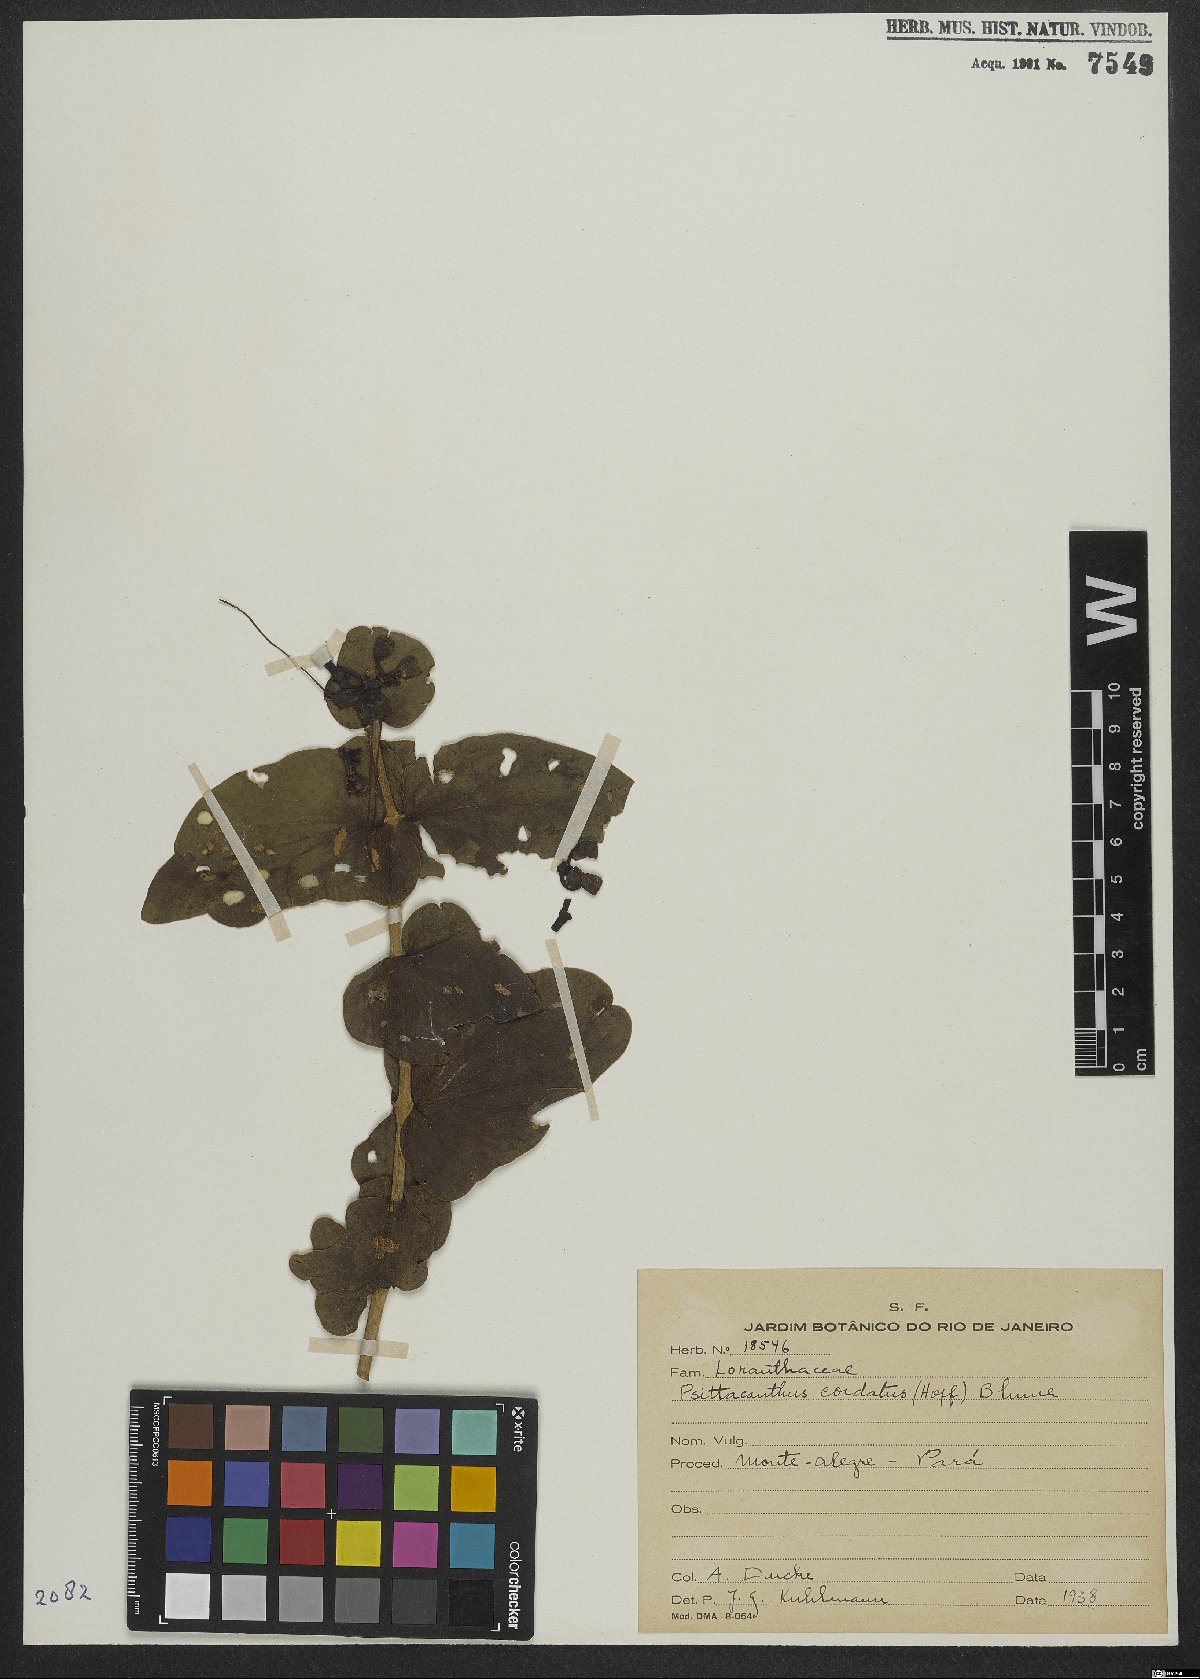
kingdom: Plantae
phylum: Tracheophyta
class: Magnoliopsida
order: Santalales
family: Loranthaceae
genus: Psittacanthus
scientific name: Psittacanthus cordatus
